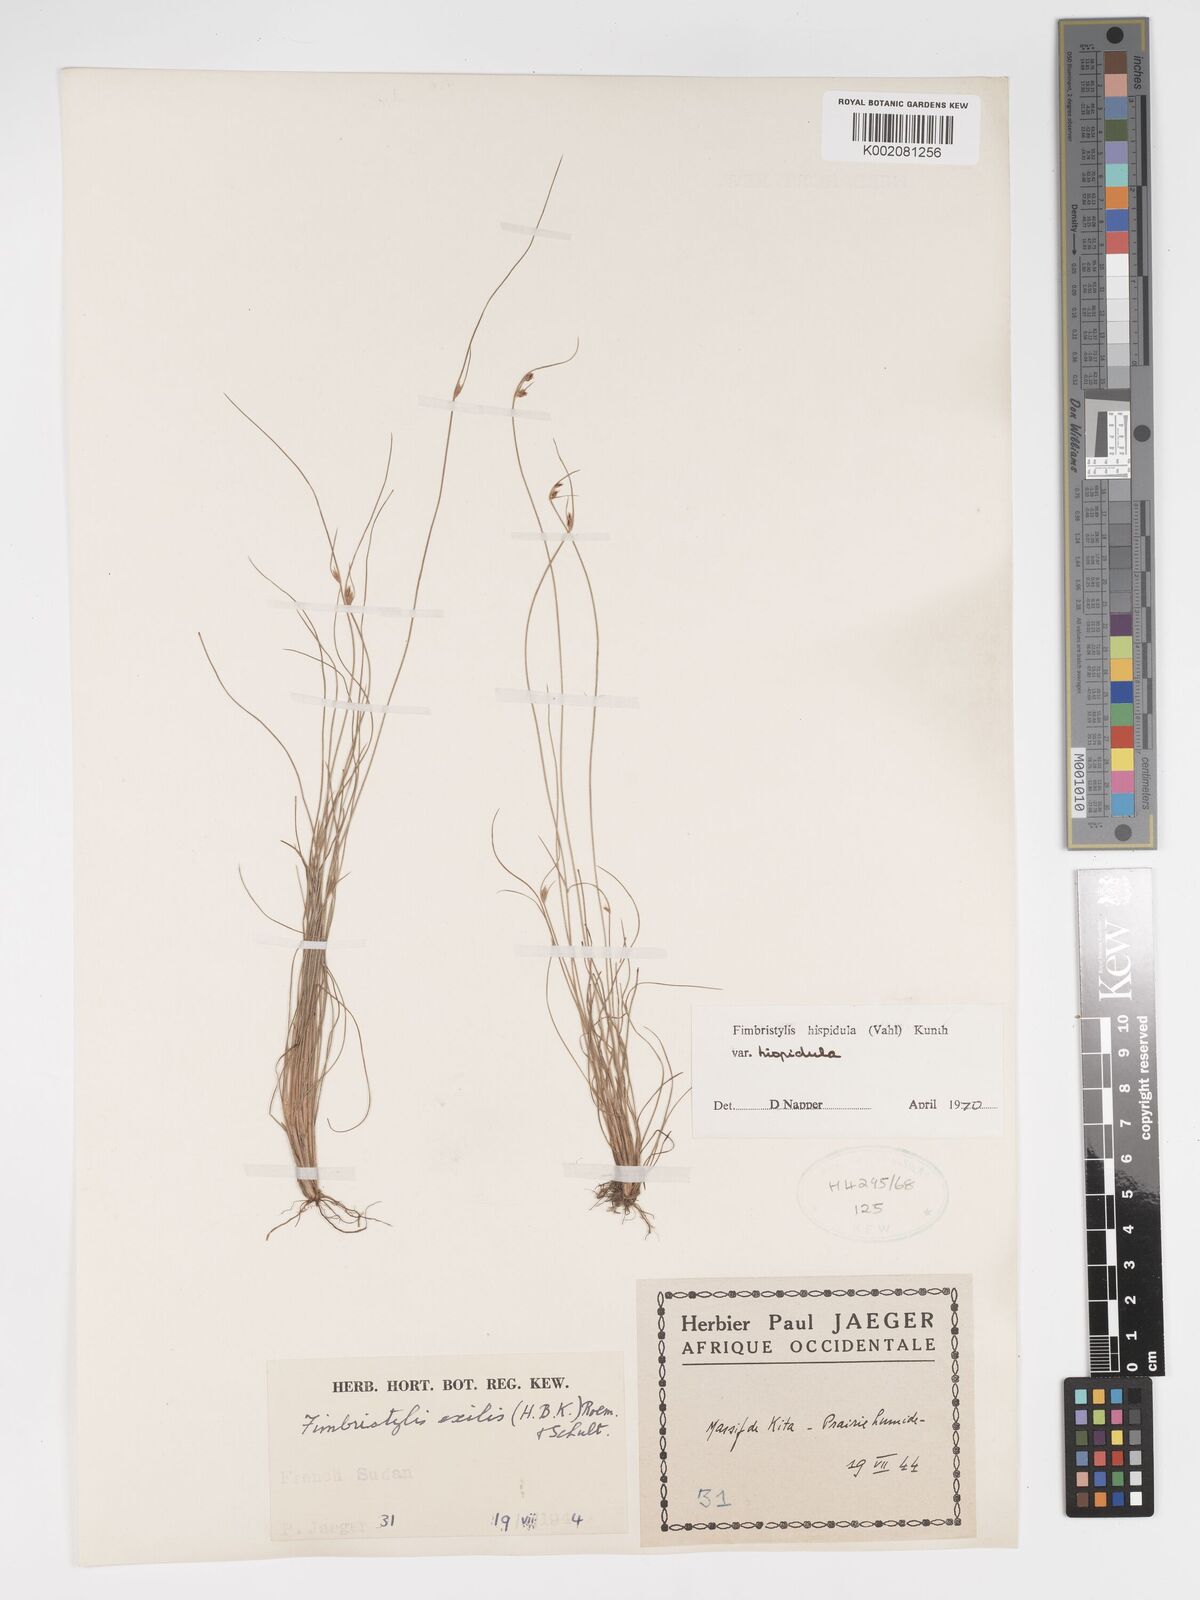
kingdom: Plantae
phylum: Tracheophyta
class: Liliopsida
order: Poales
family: Cyperaceae
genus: Bulbostylis
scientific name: Bulbostylis hispidula
